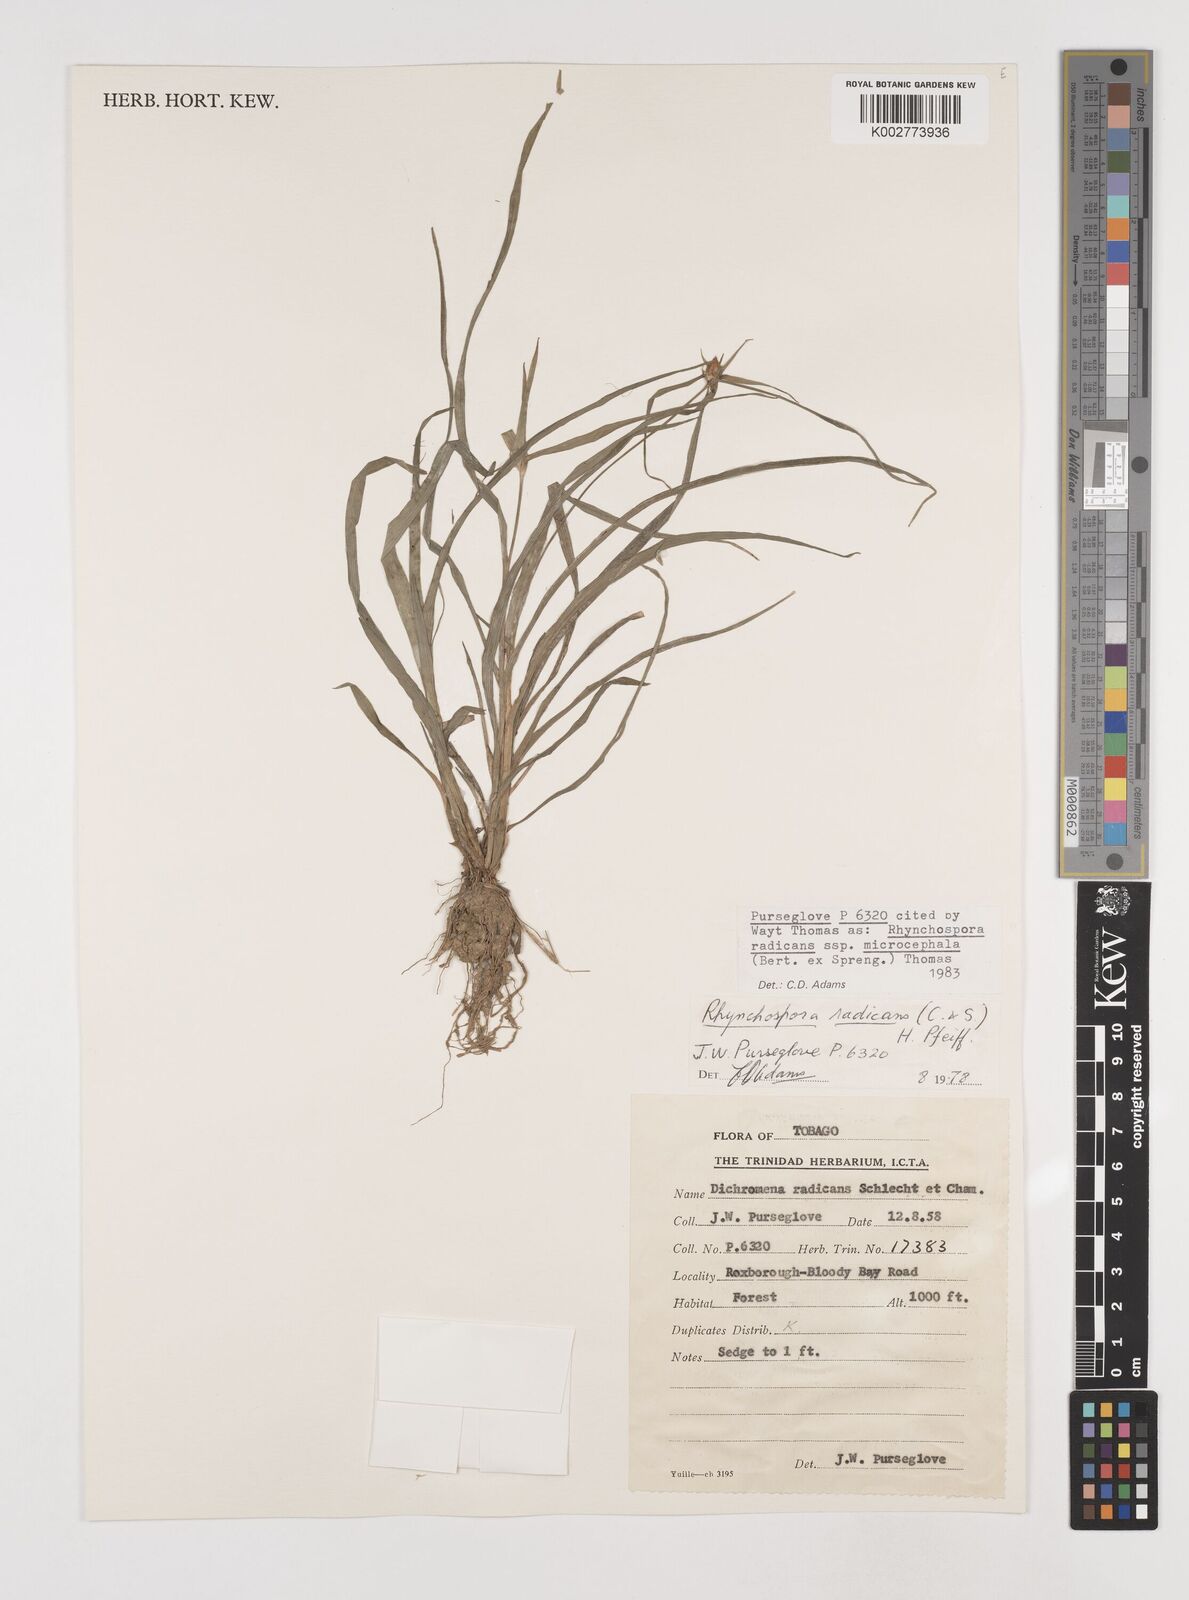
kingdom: Plantae
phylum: Tracheophyta
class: Liliopsida
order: Poales
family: Cyperaceae
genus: Rhynchospora
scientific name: Rhynchospora radicans
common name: Tropical whitetop
